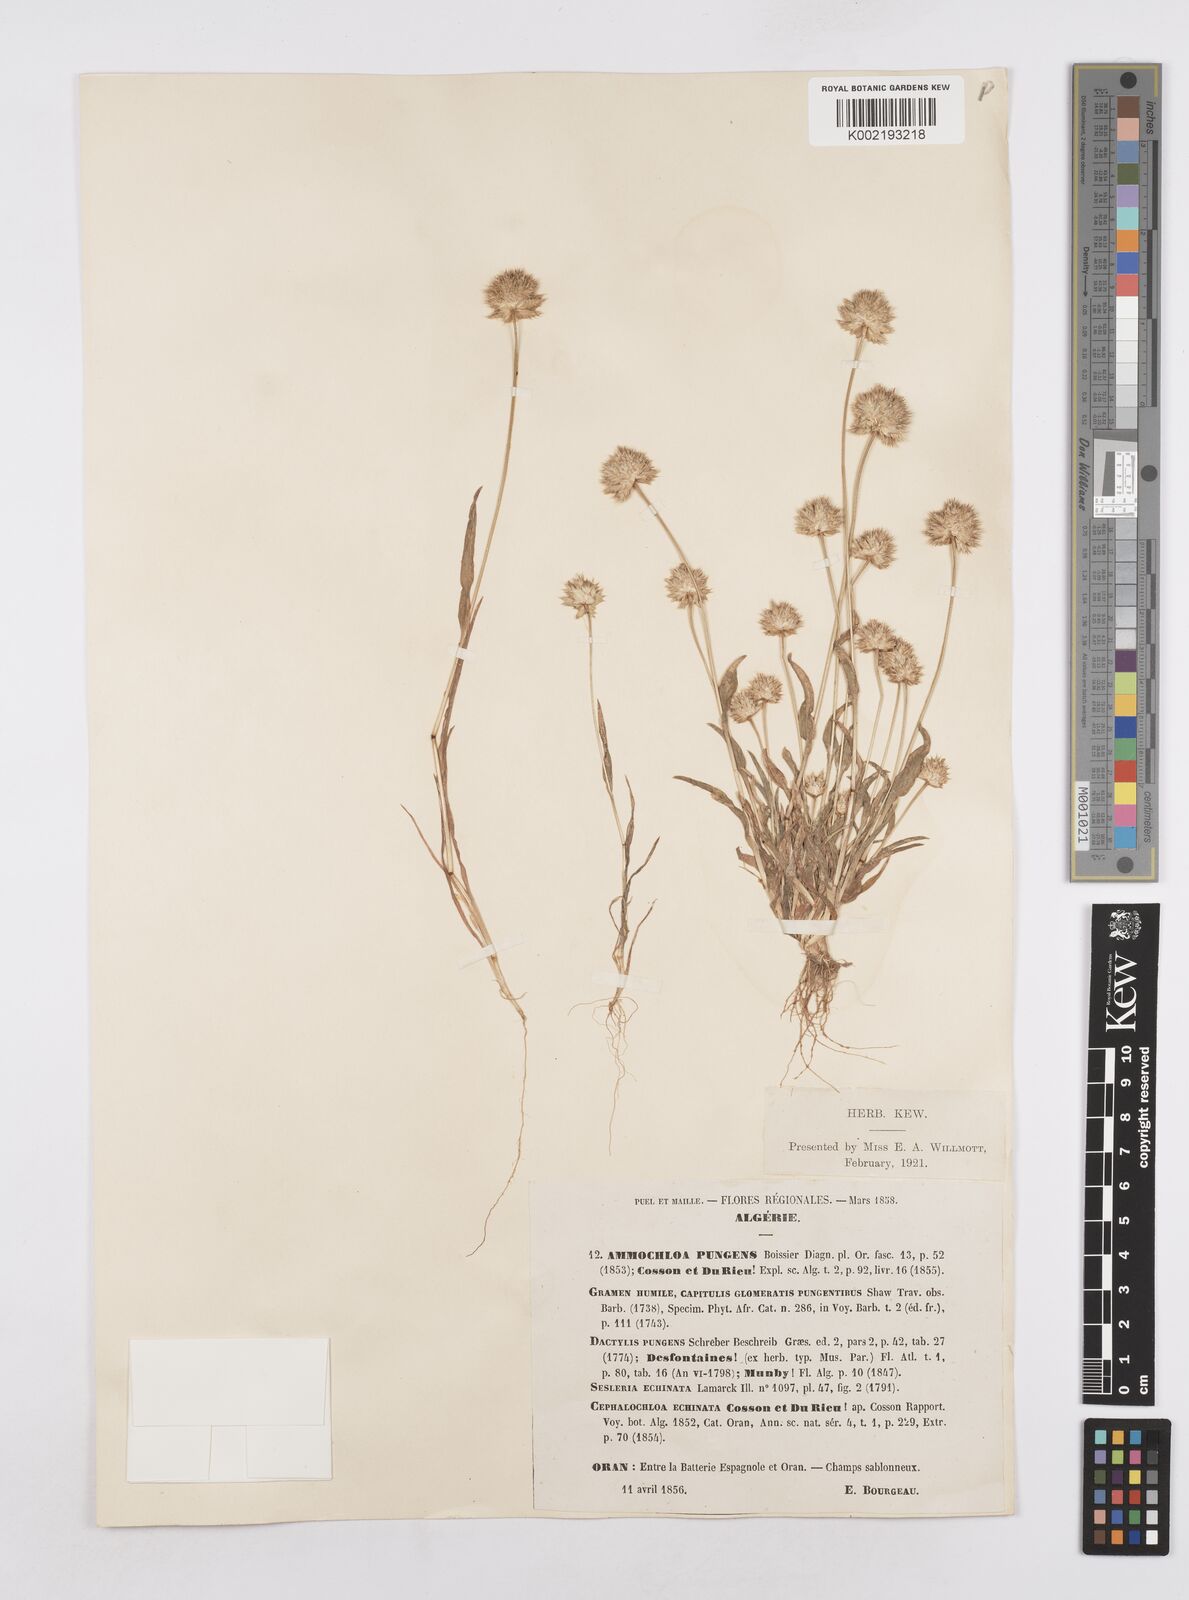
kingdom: Plantae
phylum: Tracheophyta
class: Liliopsida
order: Poales
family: Poaceae
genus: Ammochloa
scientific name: Ammochloa pungens
